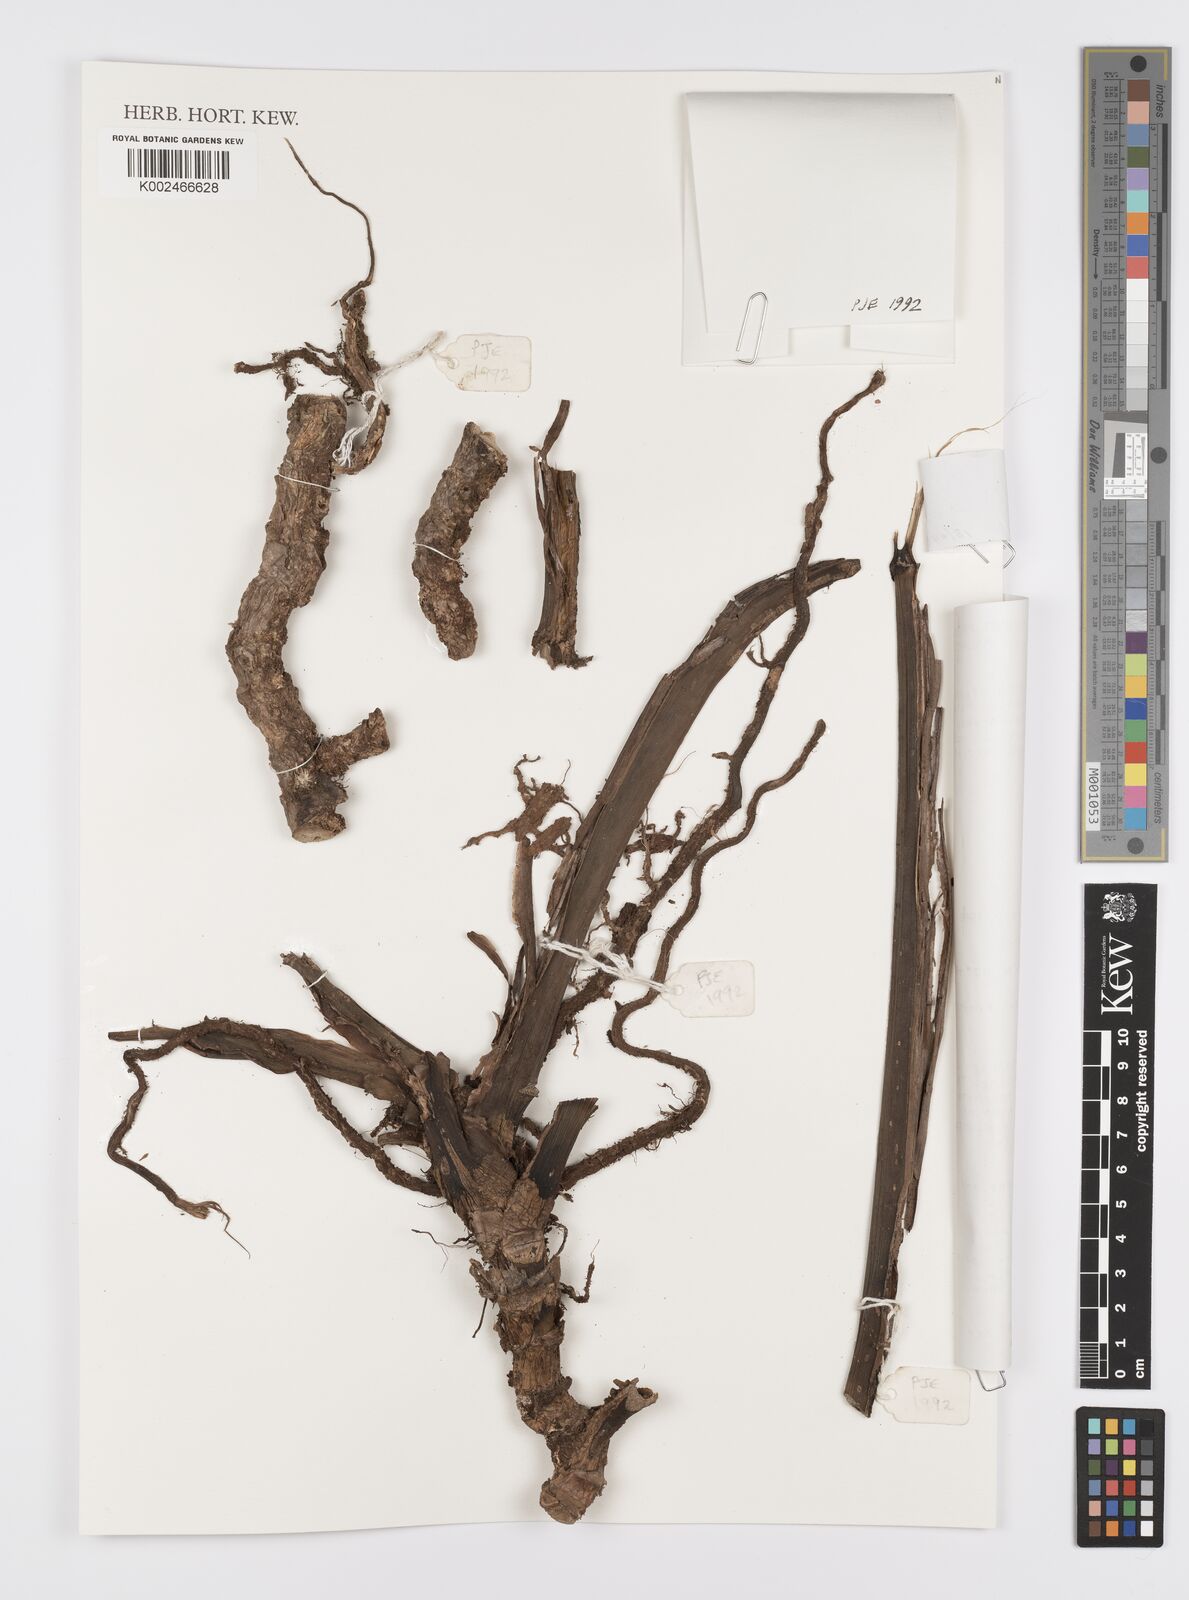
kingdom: Plantae
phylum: Tracheophyta
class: Liliopsida
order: Alismatales
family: Araceae
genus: Scindapsus
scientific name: Scindapsus
